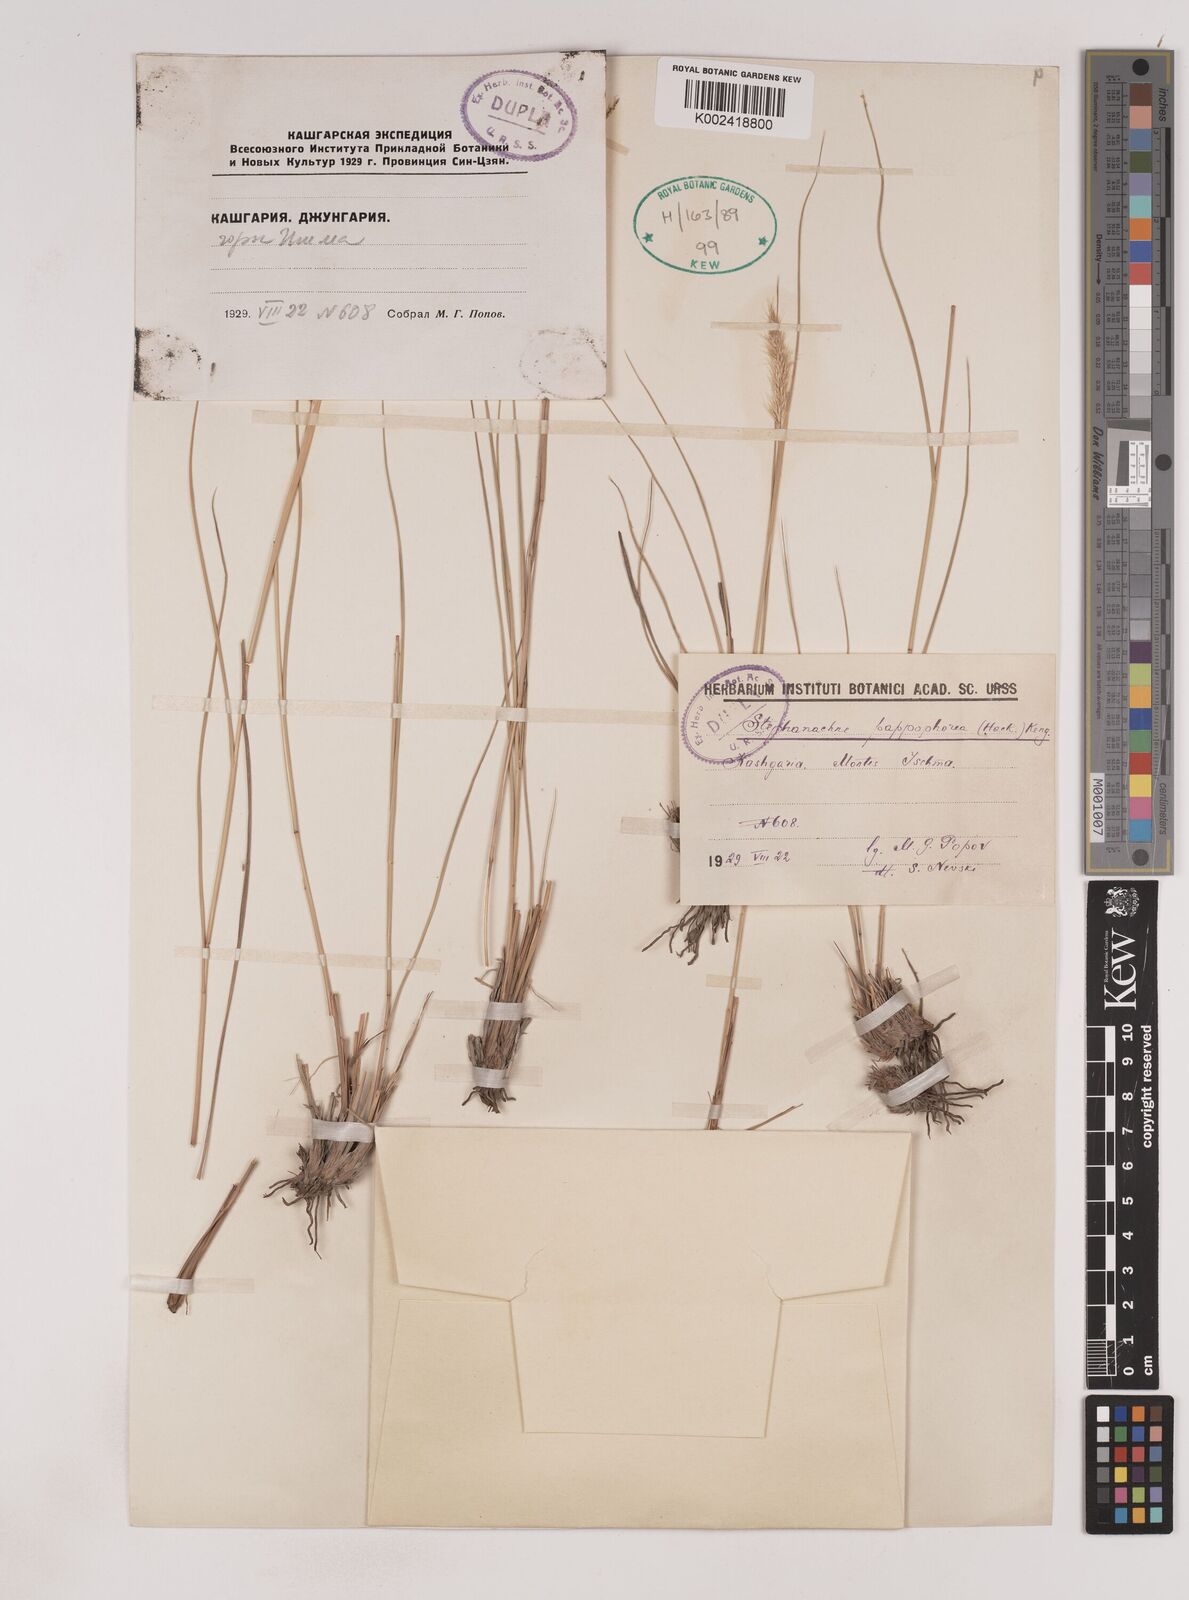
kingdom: Plantae
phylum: Tracheophyta
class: Liliopsida
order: Poales
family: Poaceae
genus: Pappagrostis
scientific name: Pappagrostis pappophorea
